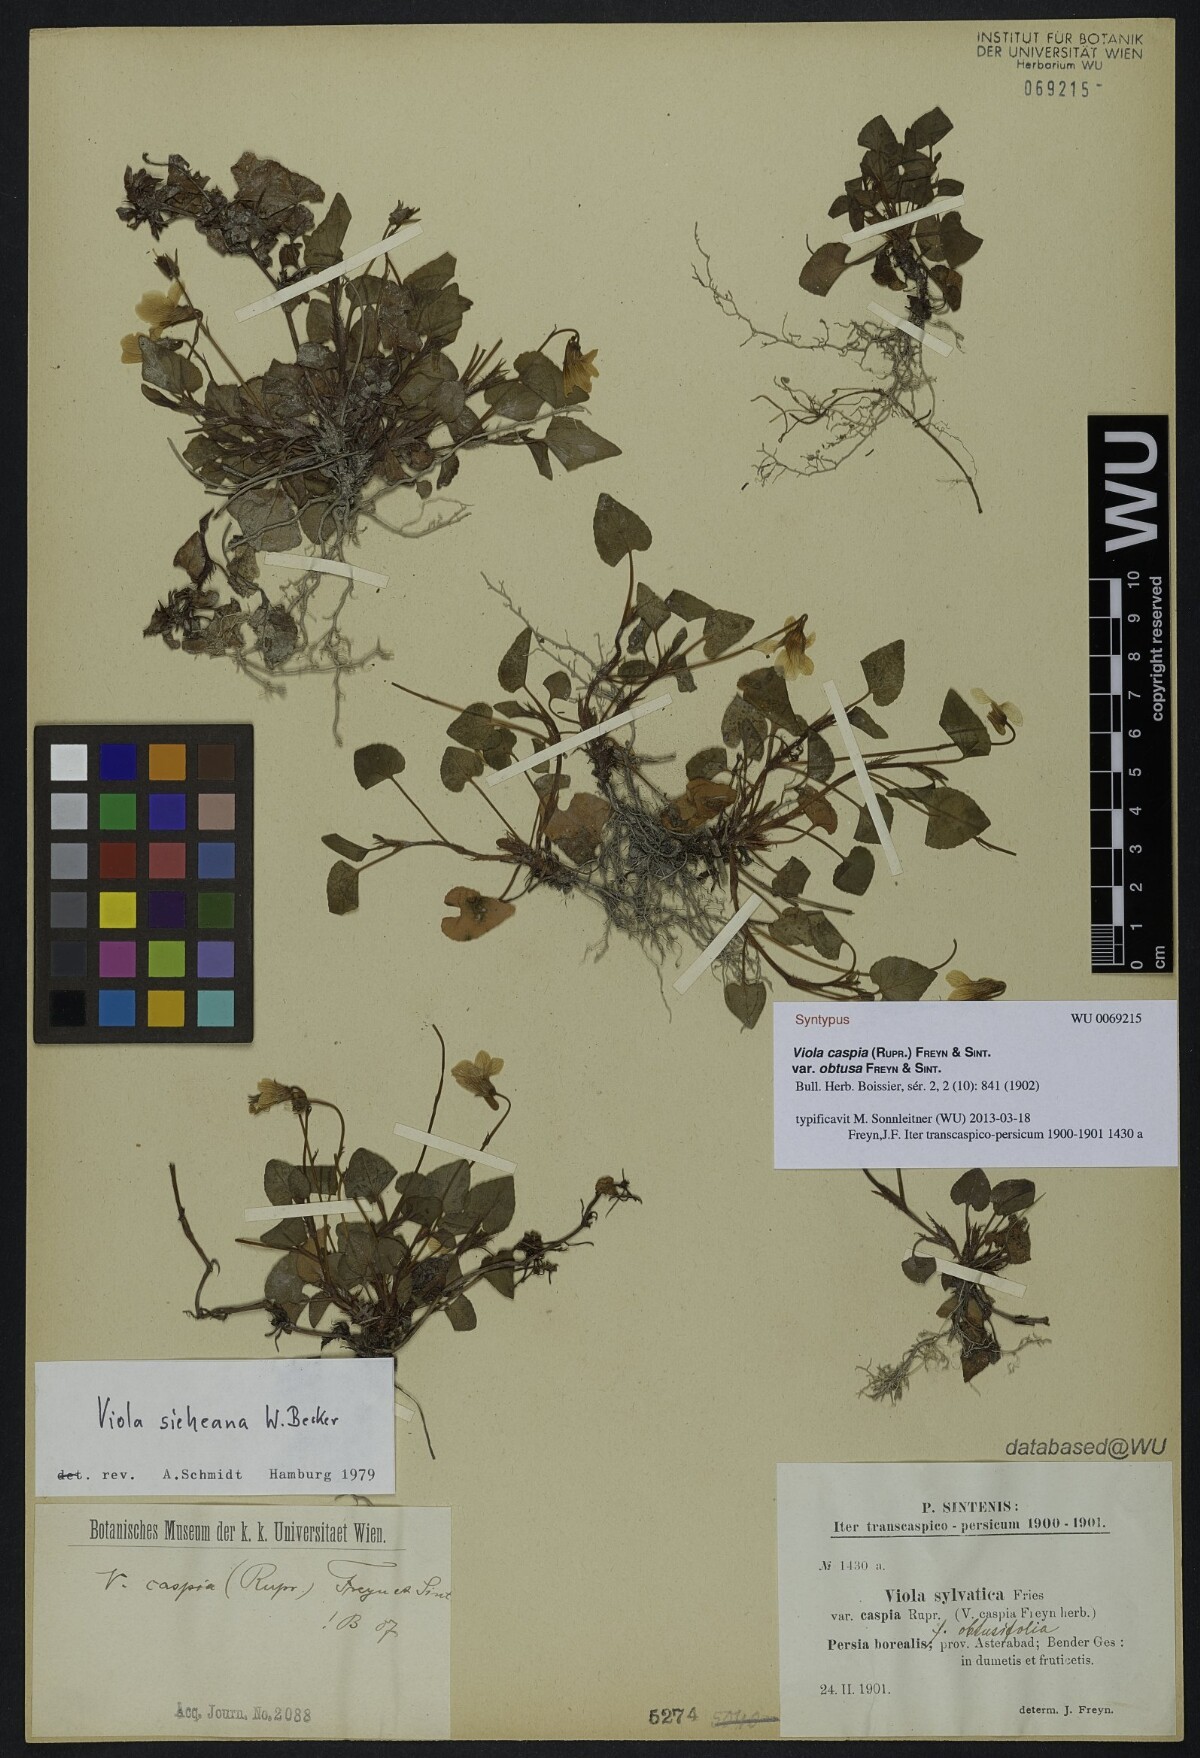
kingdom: Plantae
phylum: Tracheophyta
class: Magnoliopsida
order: Malpighiales
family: Violaceae
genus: Viola
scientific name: Viola caspia
